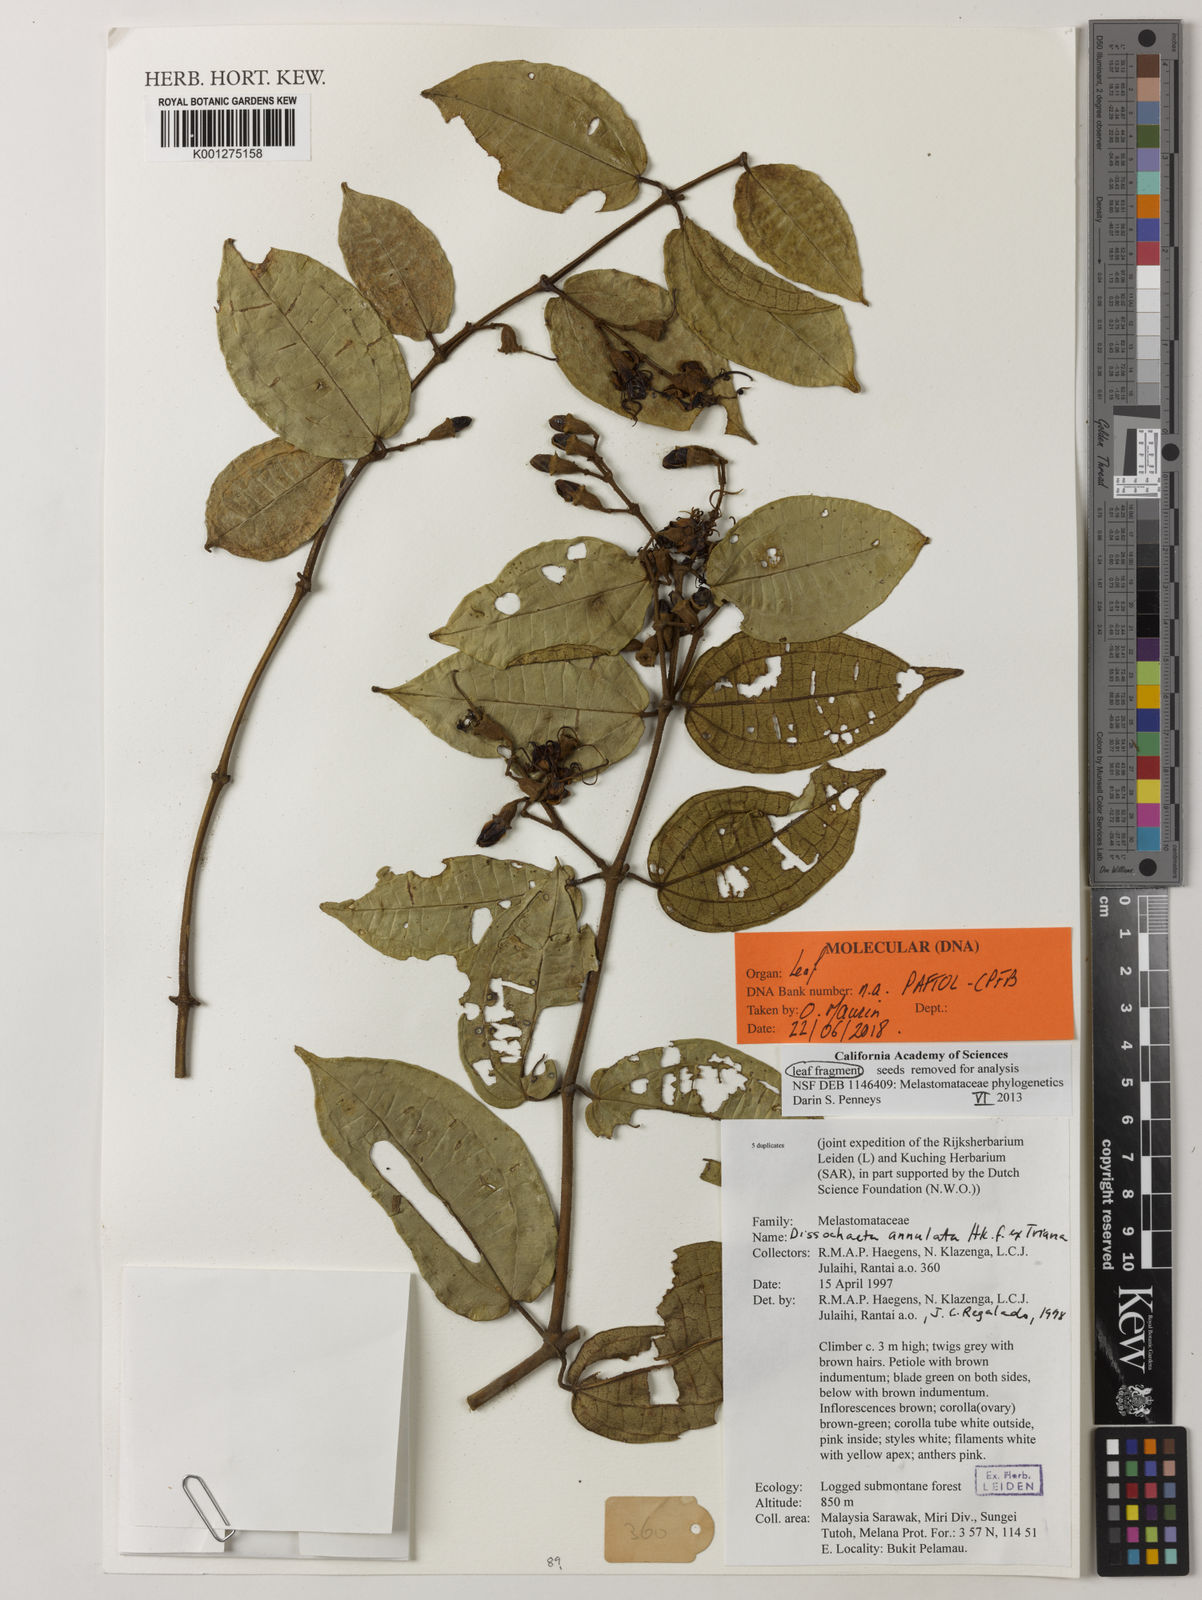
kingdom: Plantae
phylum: Tracheophyta
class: Magnoliopsida
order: Myrtales
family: Melastomataceae
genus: Dissochaeta
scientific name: Dissochaeta annulata
